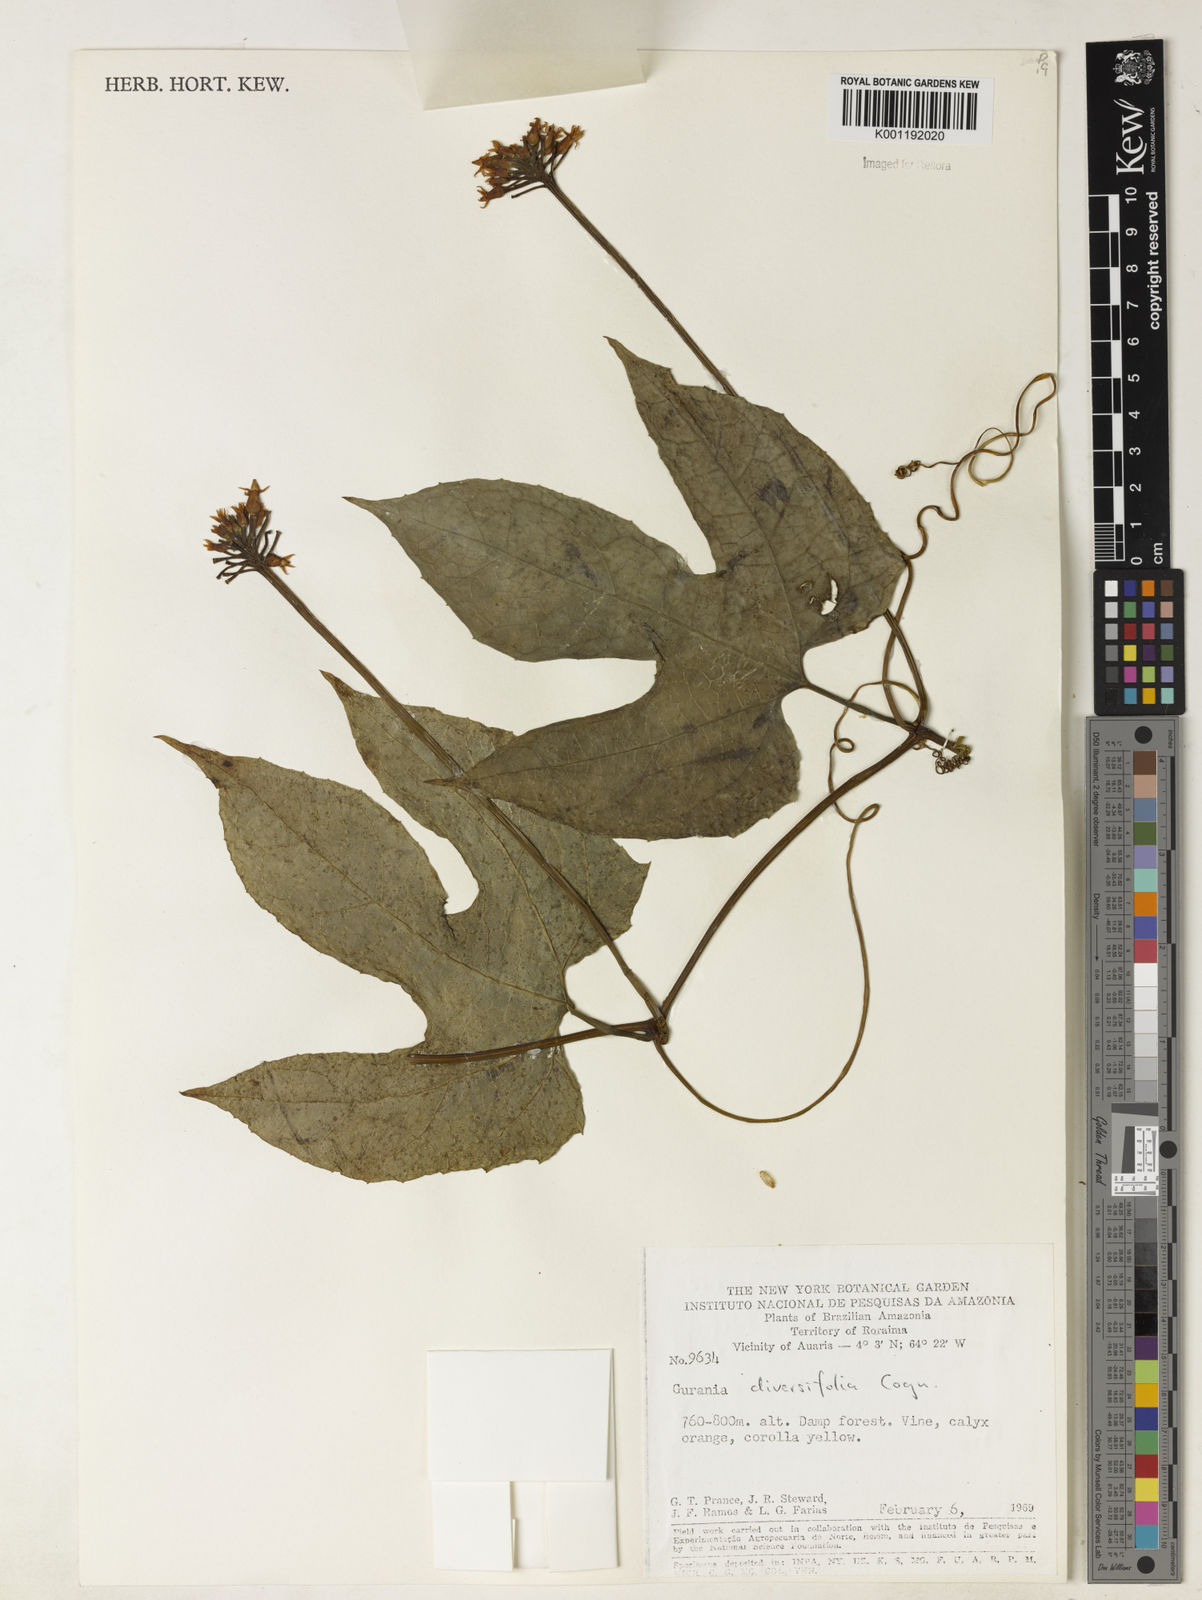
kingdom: Plantae
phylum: Tracheophyta
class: Magnoliopsida
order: Cucurbitales
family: Cucurbitaceae
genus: Gurania
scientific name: Gurania acuminata
